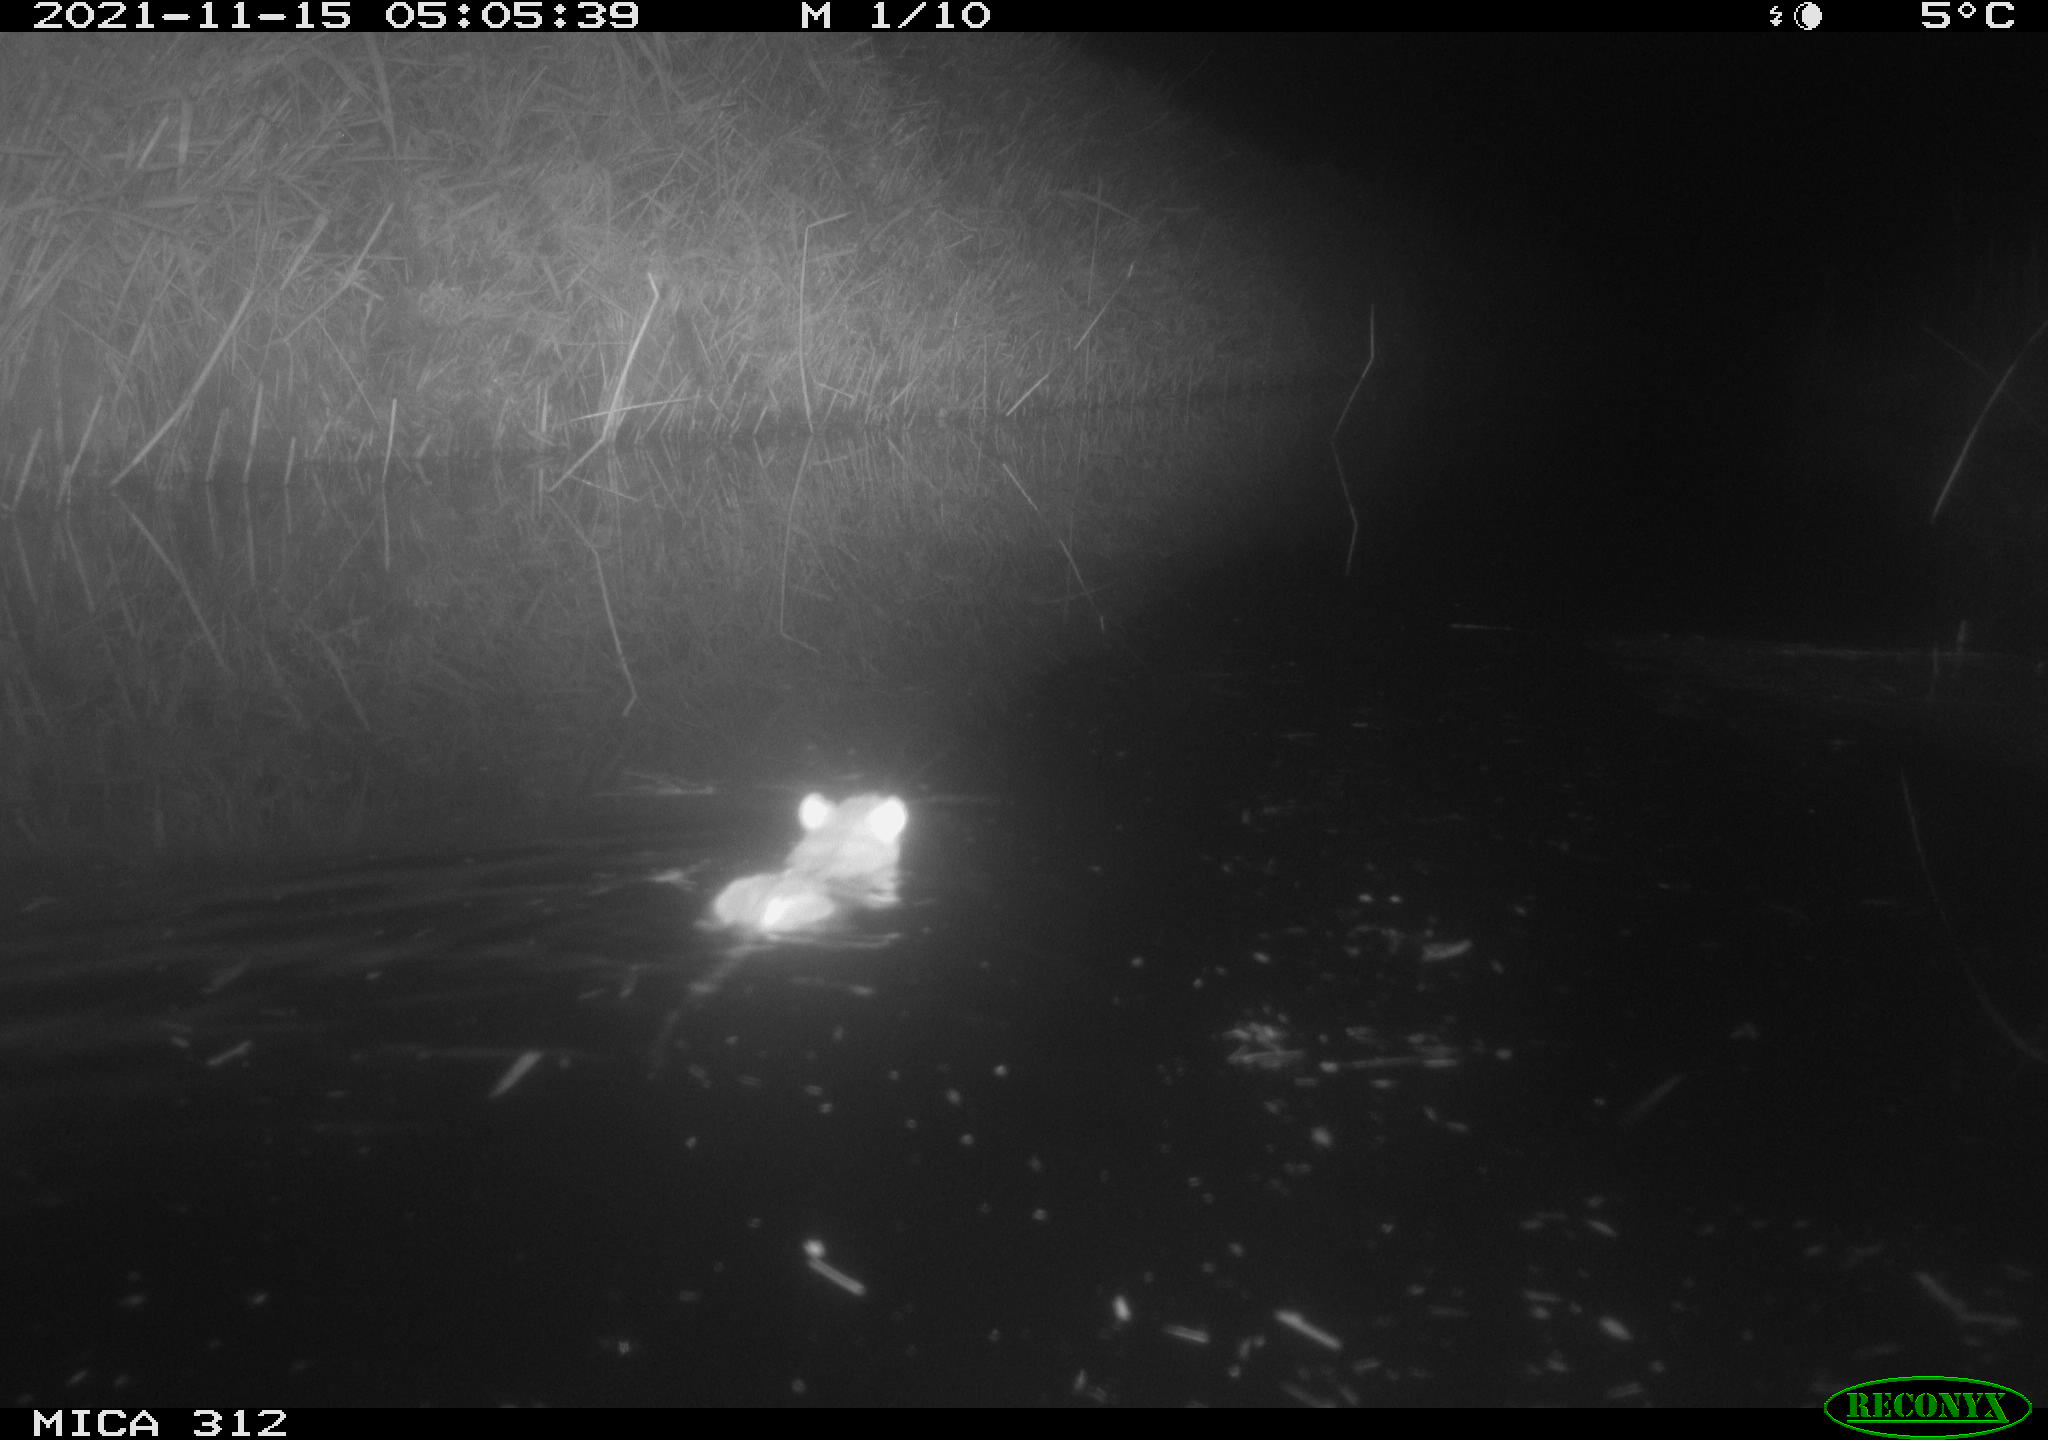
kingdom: Animalia
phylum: Chordata
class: Mammalia
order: Rodentia
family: Muridae
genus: Rattus
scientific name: Rattus norvegicus
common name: Brown rat
